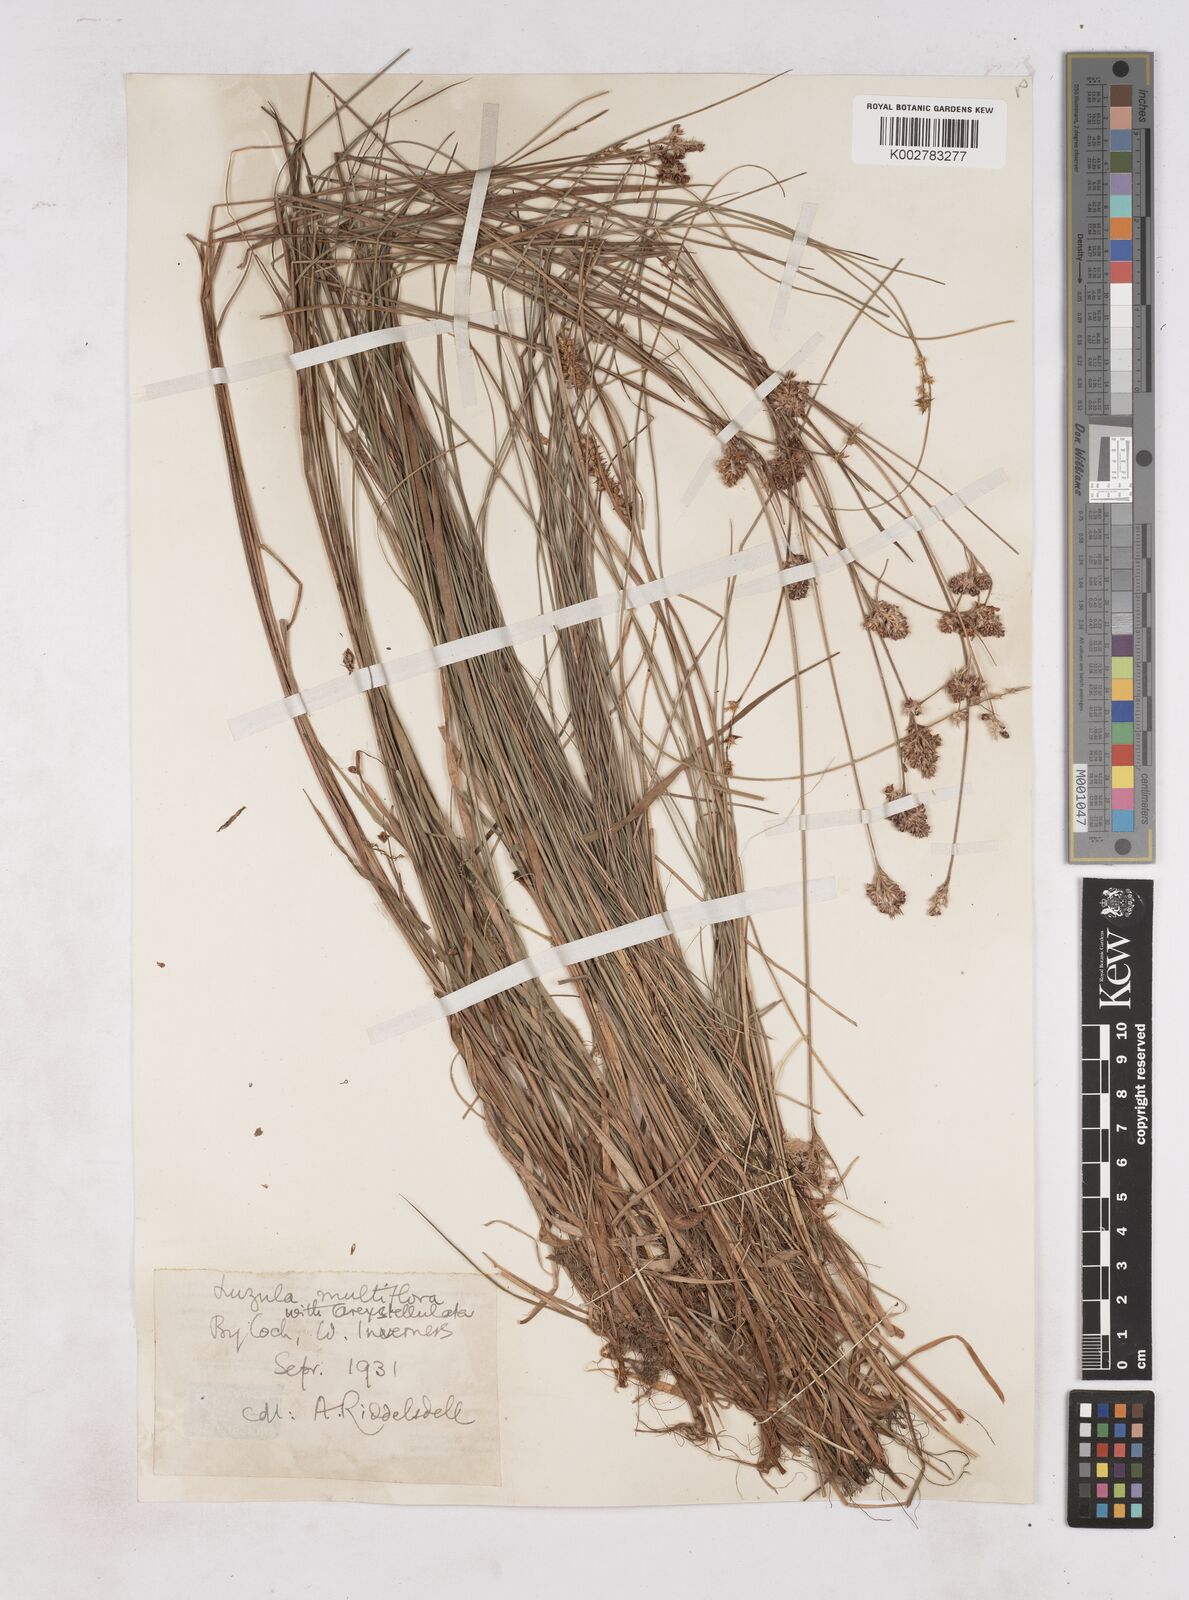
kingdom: Plantae
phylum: Tracheophyta
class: Liliopsida
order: Poales
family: Juncaceae
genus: Luzula
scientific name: Luzula multiflora
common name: Heath wood-rush
